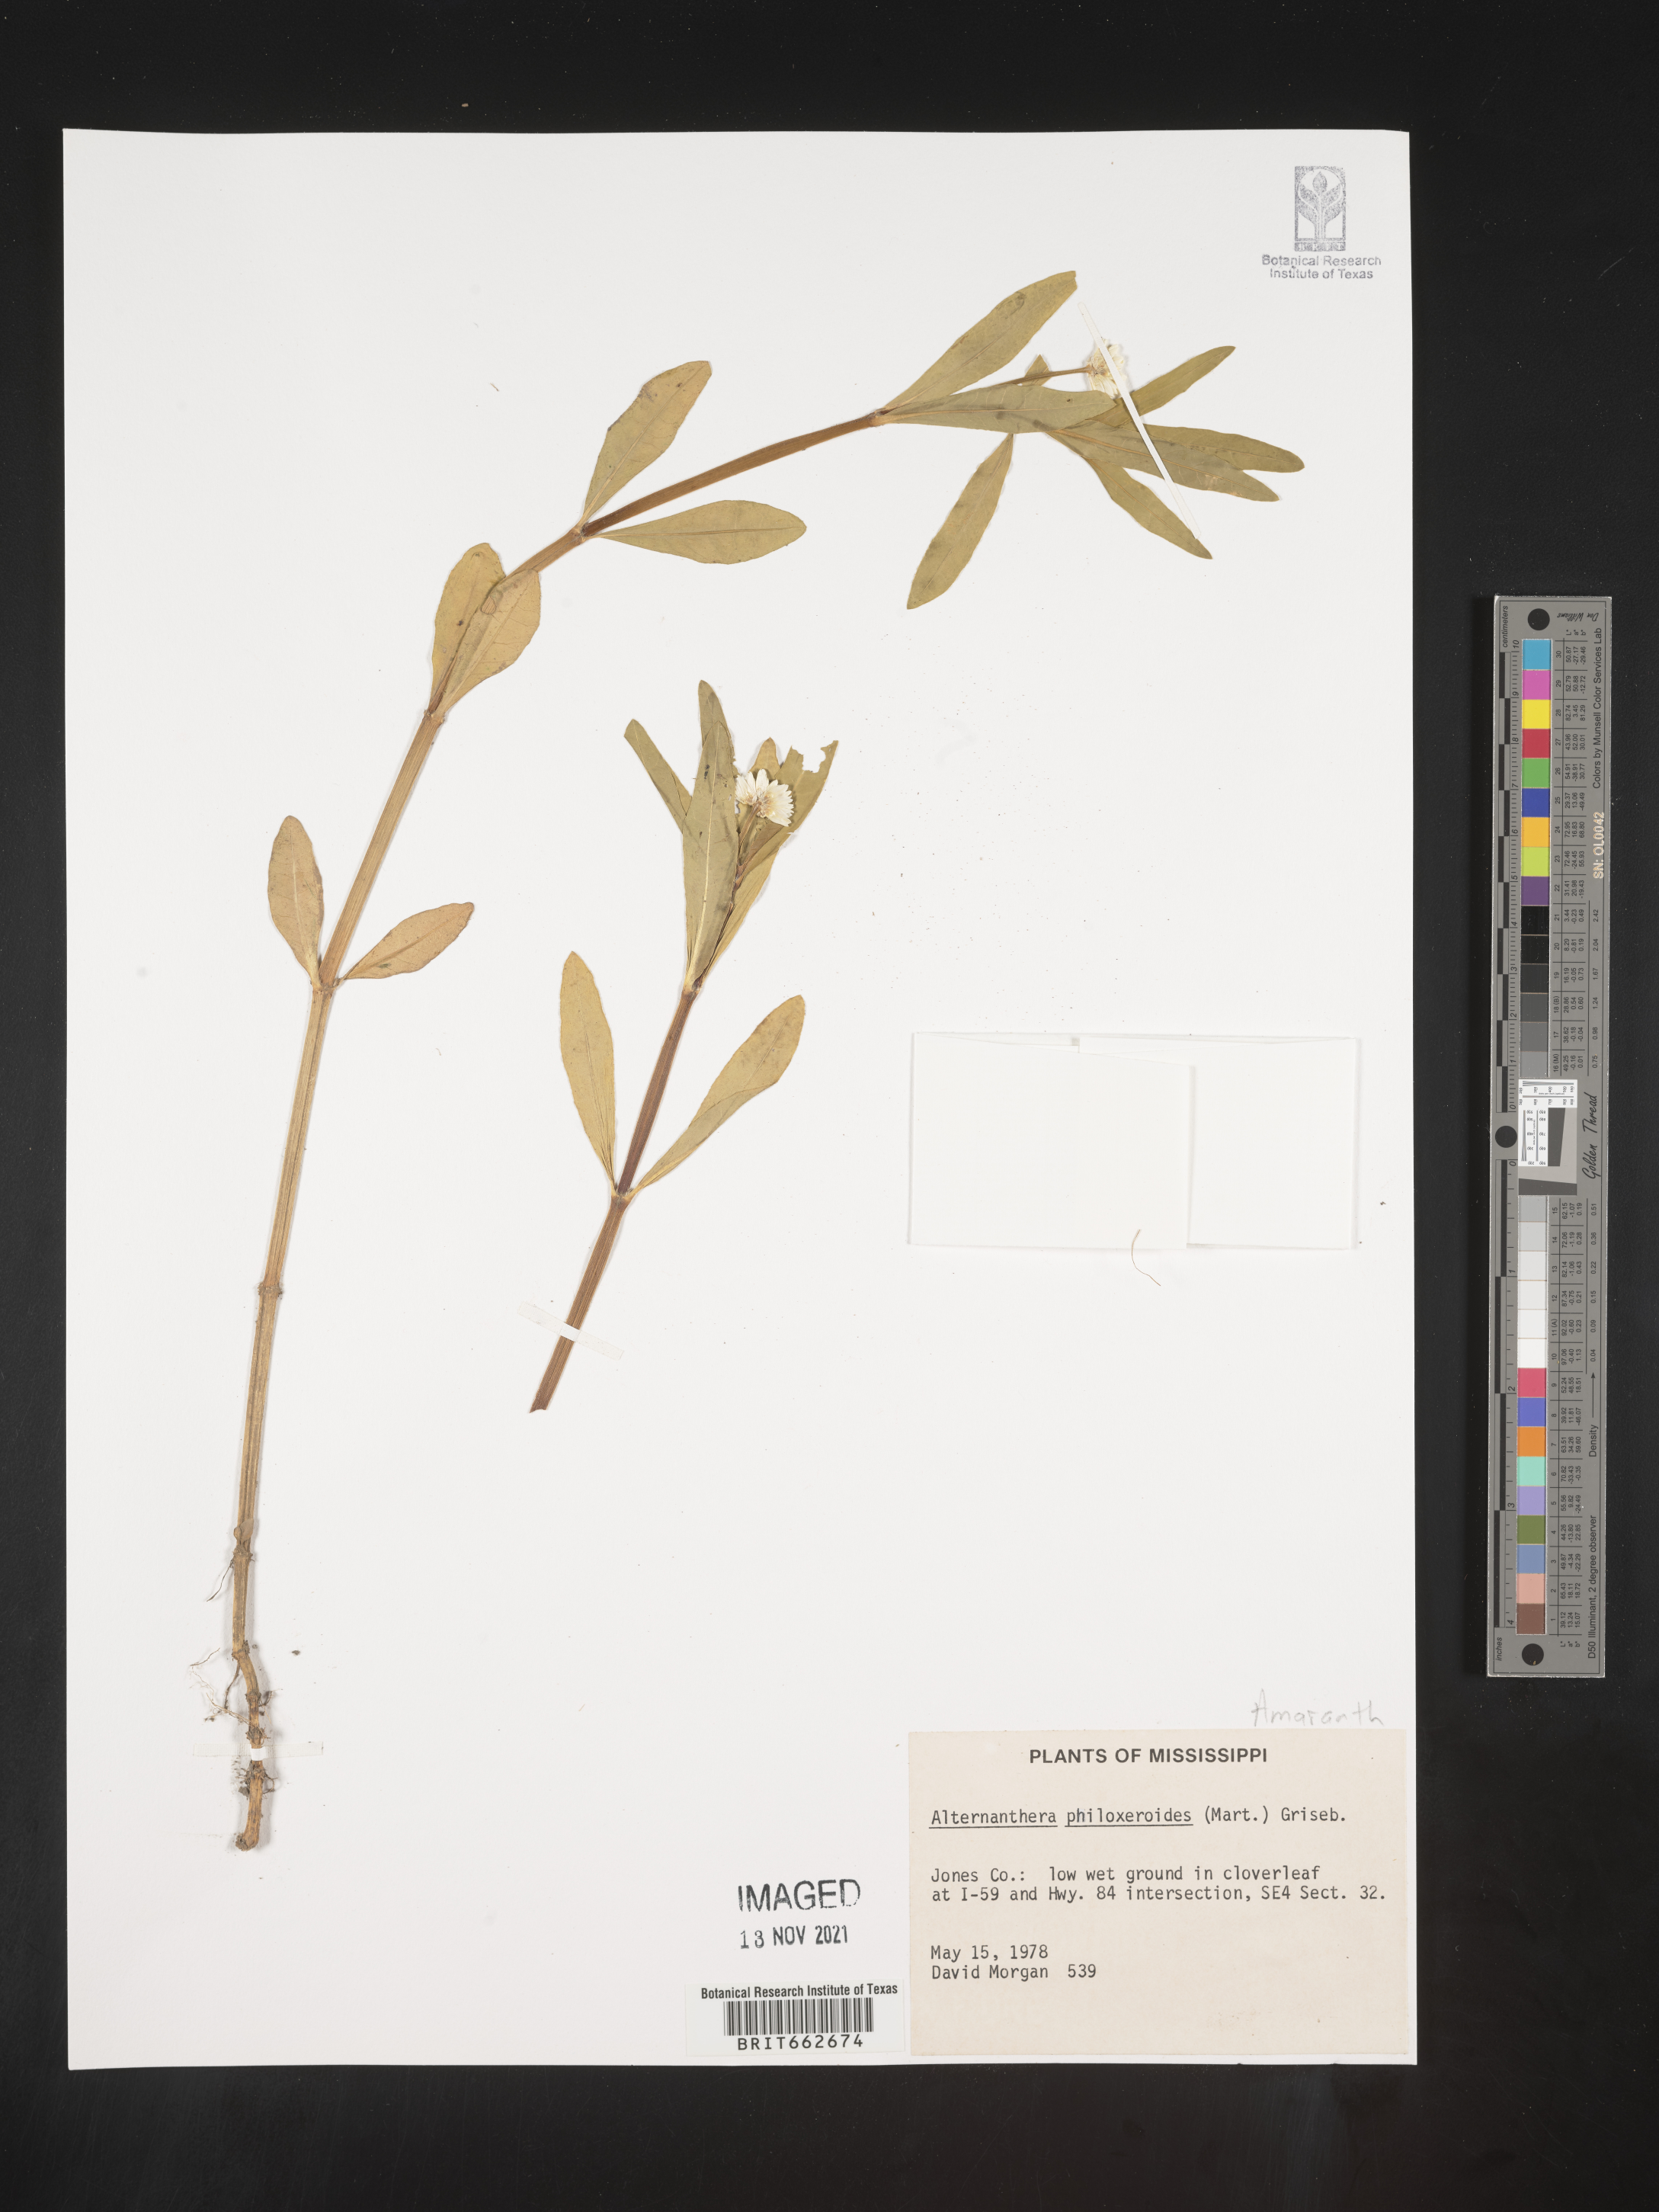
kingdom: Plantae
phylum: Tracheophyta
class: Magnoliopsida
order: Caryophyllales
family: Amaranthaceae
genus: Alternanthera
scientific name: Alternanthera philoxeroides
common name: Alligatorweed
